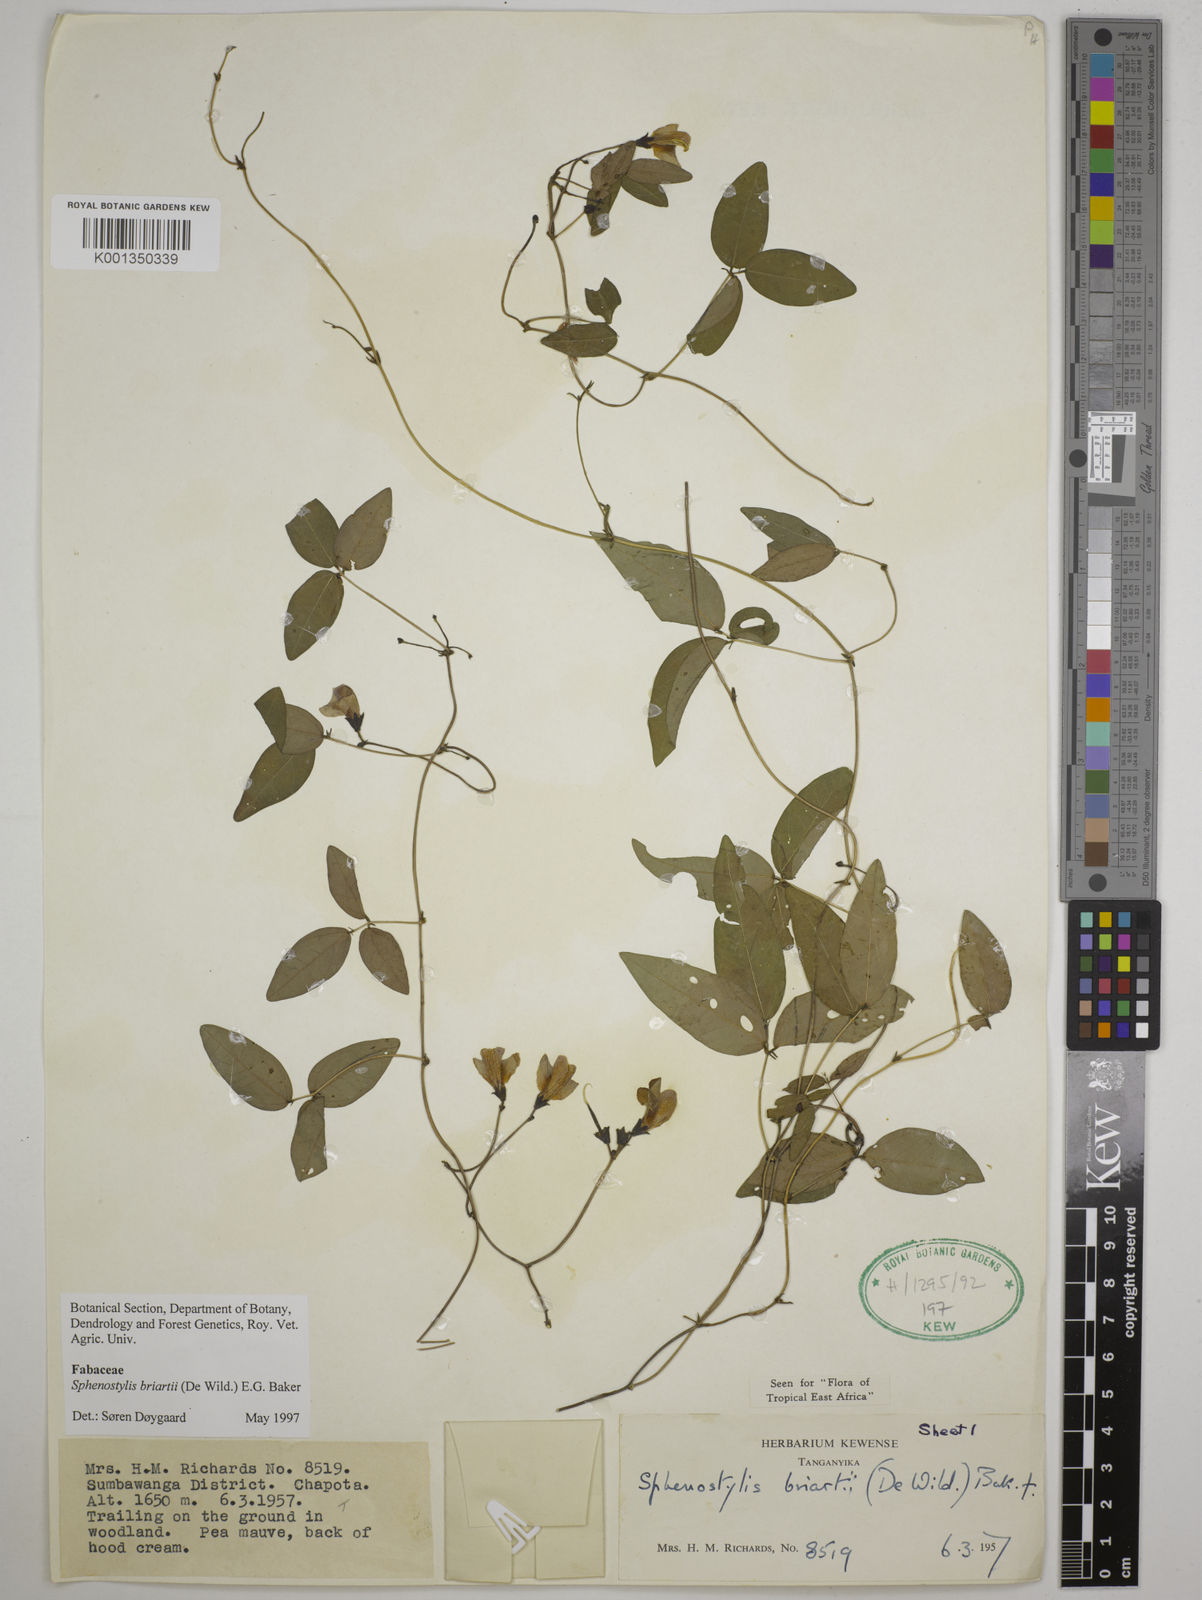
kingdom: Plantae
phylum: Tracheophyta
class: Magnoliopsida
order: Fabales
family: Fabaceae
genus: Sphenostylis
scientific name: Sphenostylis briartii
